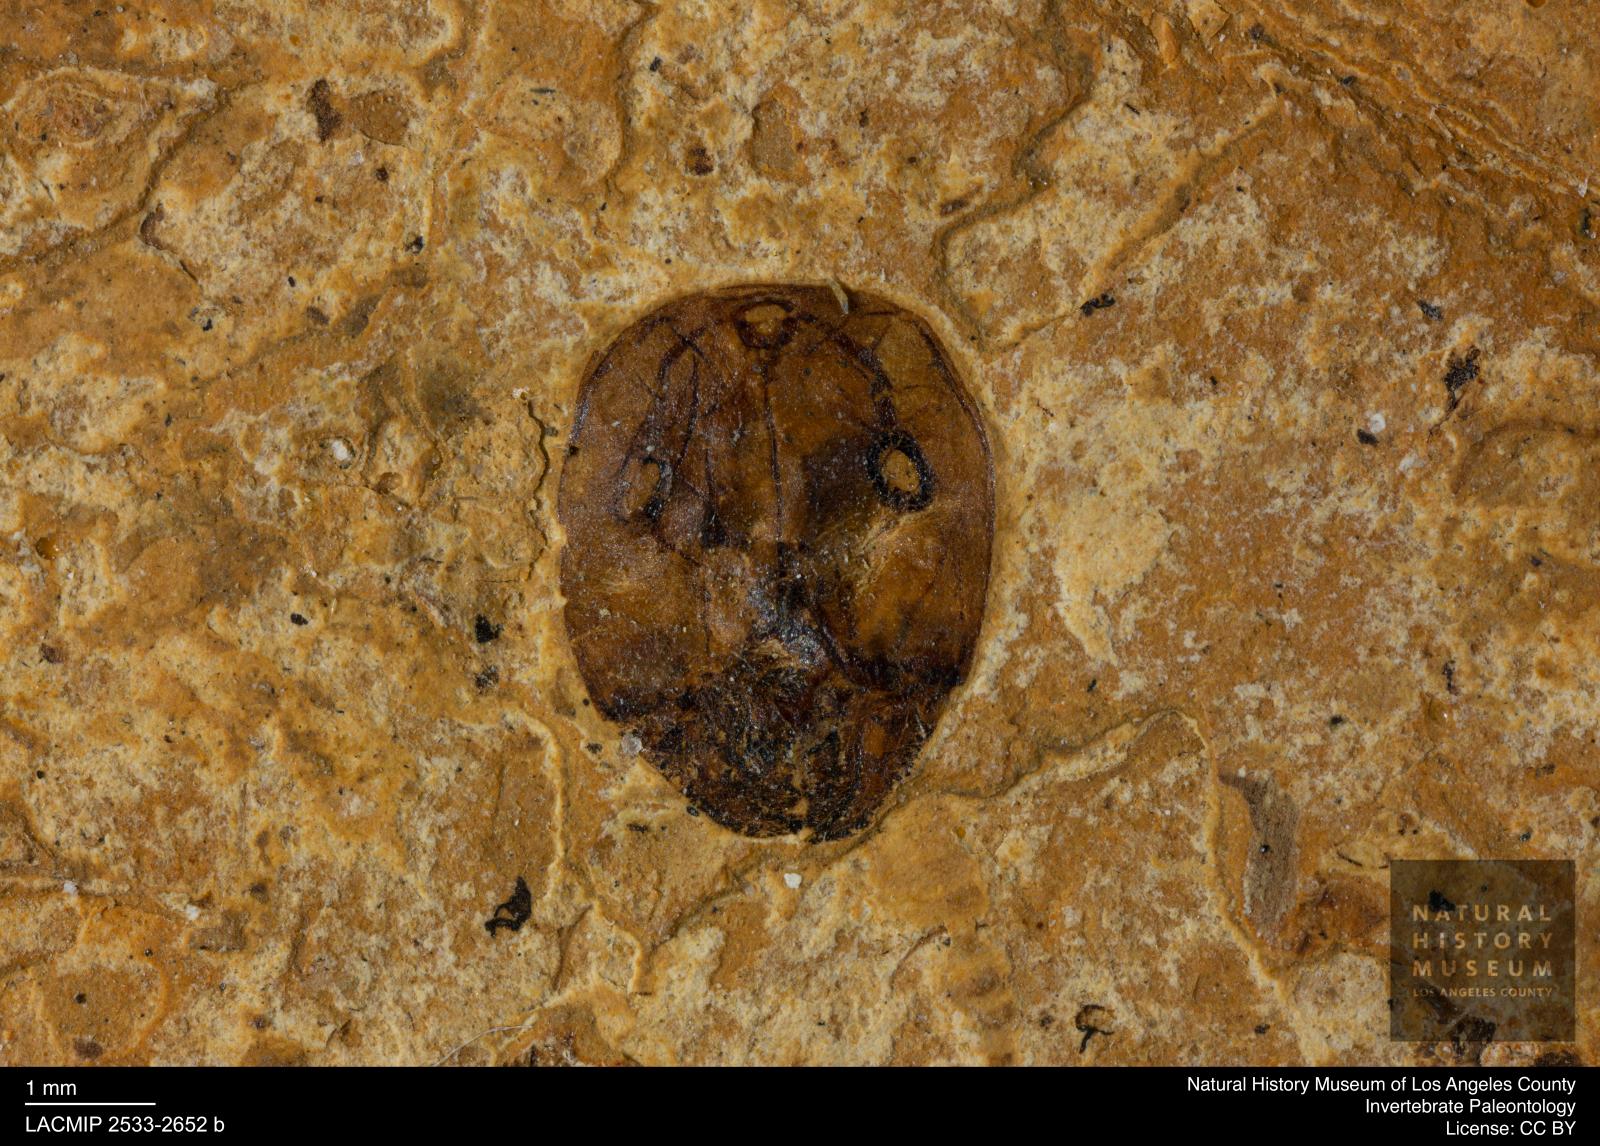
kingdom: Animalia
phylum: Arthropoda
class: Insecta
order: Hymenoptera
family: Formicidae
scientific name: Formicidae
